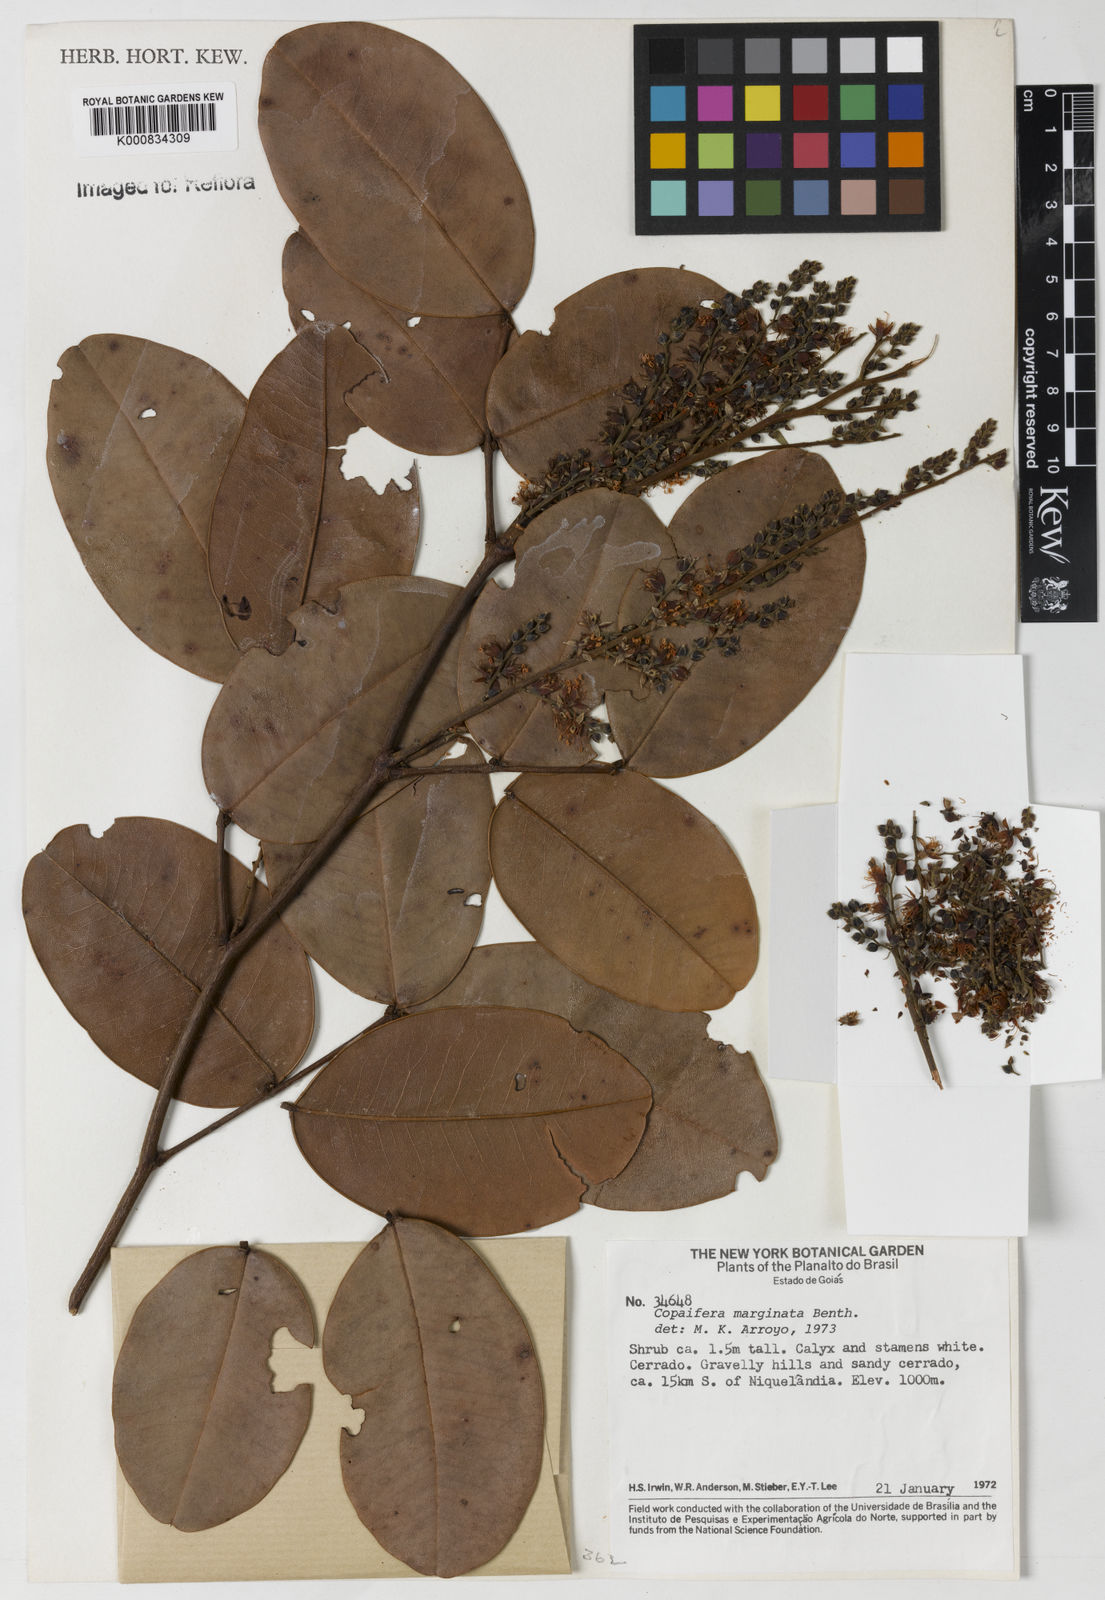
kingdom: Plantae
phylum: Tracheophyta
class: Magnoliopsida
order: Fabales
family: Fabaceae
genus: Copaifera
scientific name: Copaifera marginata
